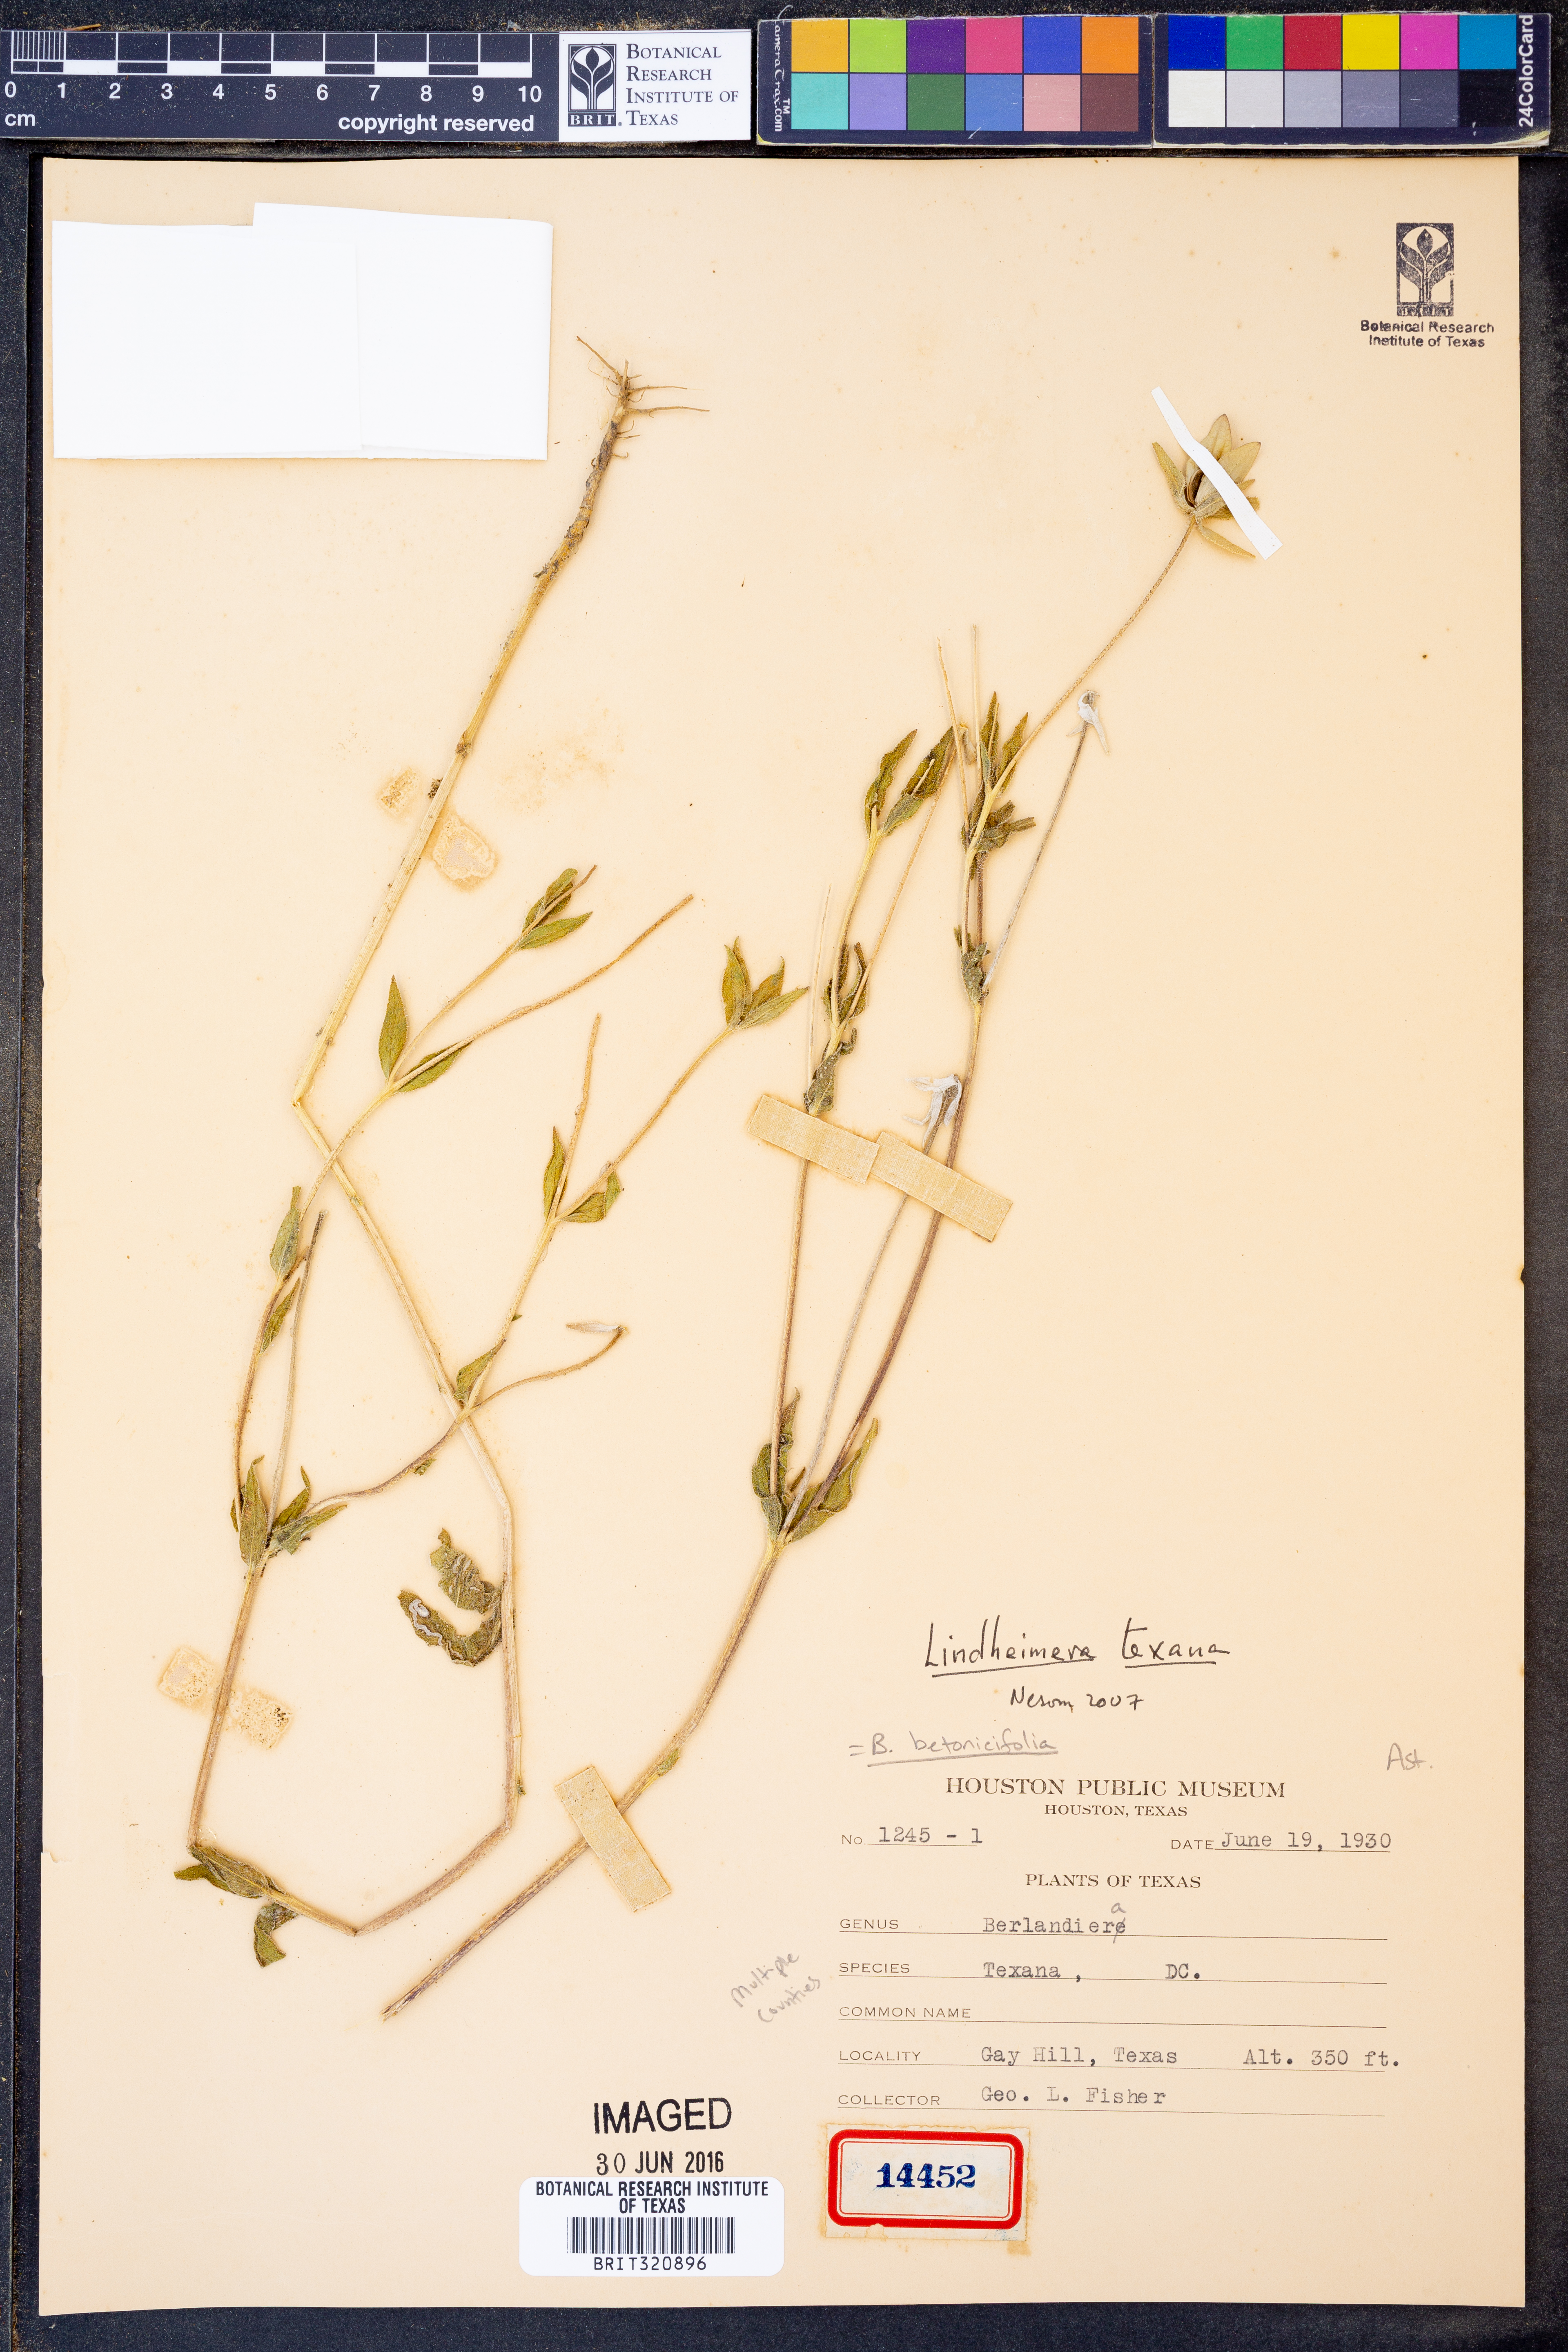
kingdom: Plantae
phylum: Tracheophyta
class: Magnoliopsida
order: Asterales
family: Asteraceae
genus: Lindheimera
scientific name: Lindheimera texana
